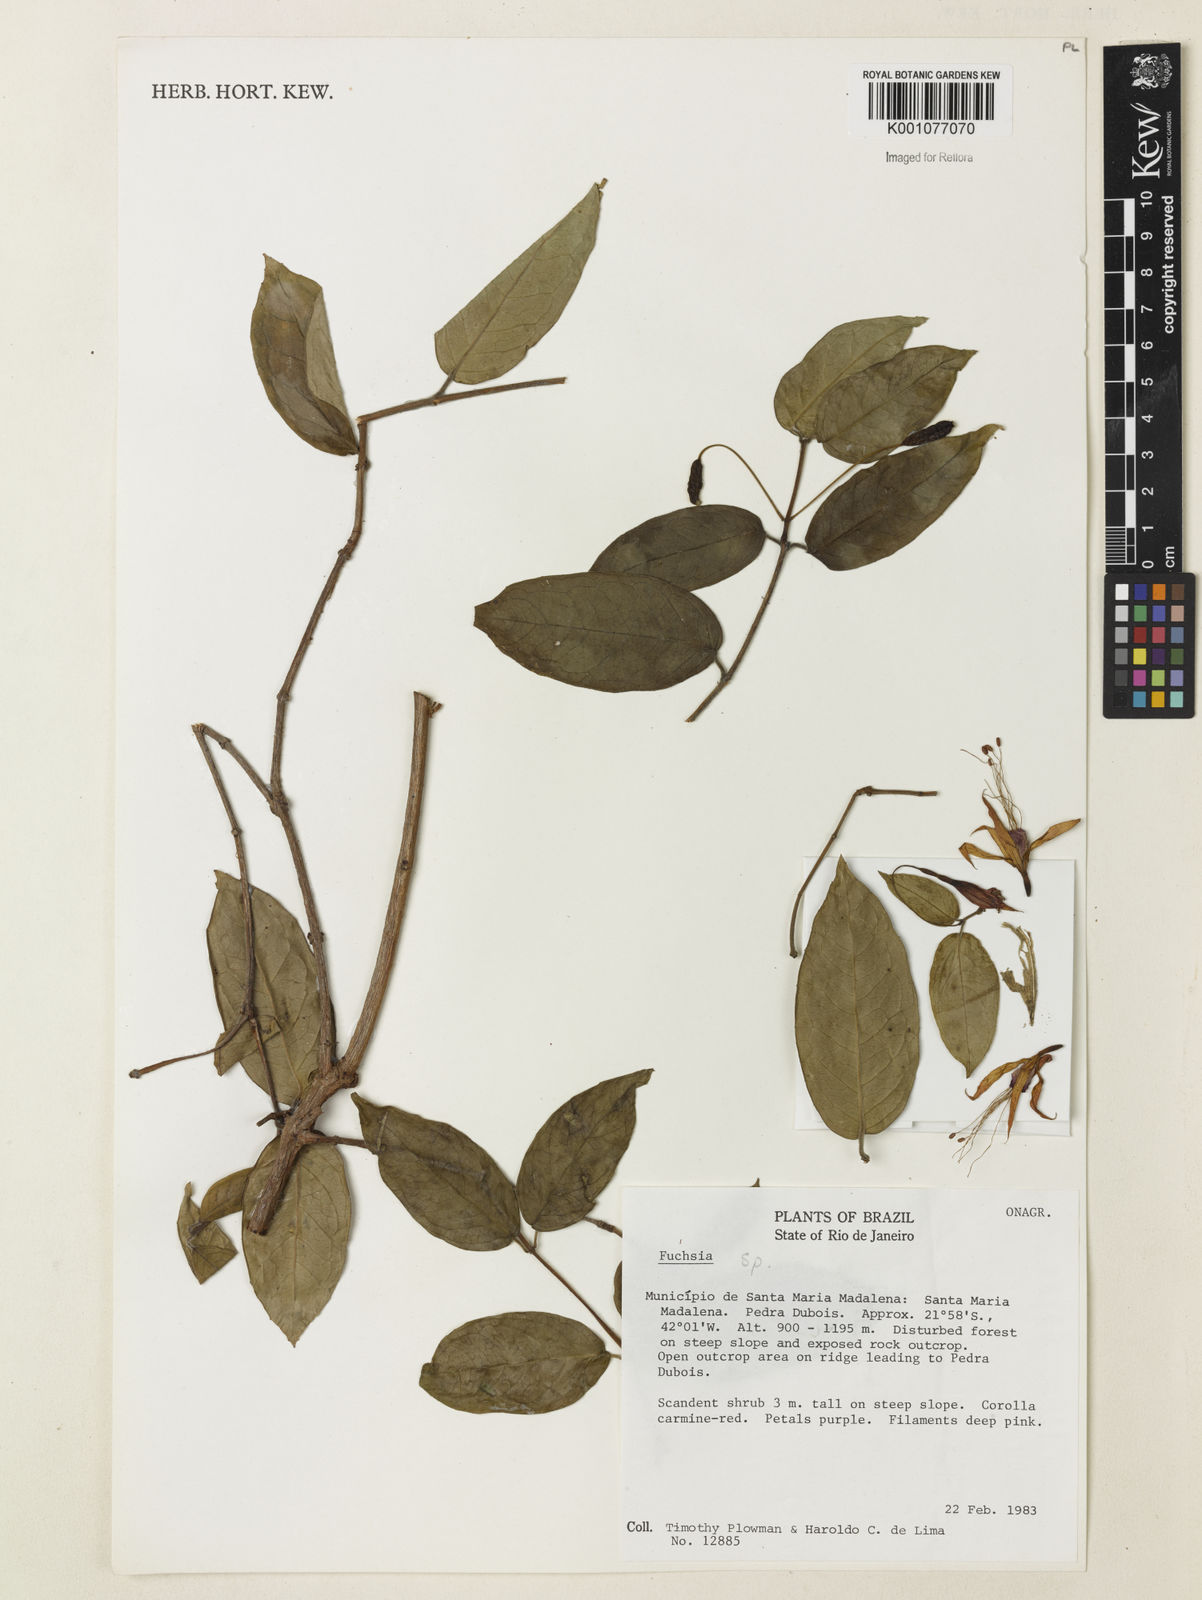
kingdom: Plantae
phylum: Tracheophyta
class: Magnoliopsida
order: Myrtales
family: Onagraceae
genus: Fuchsia
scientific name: Fuchsia
